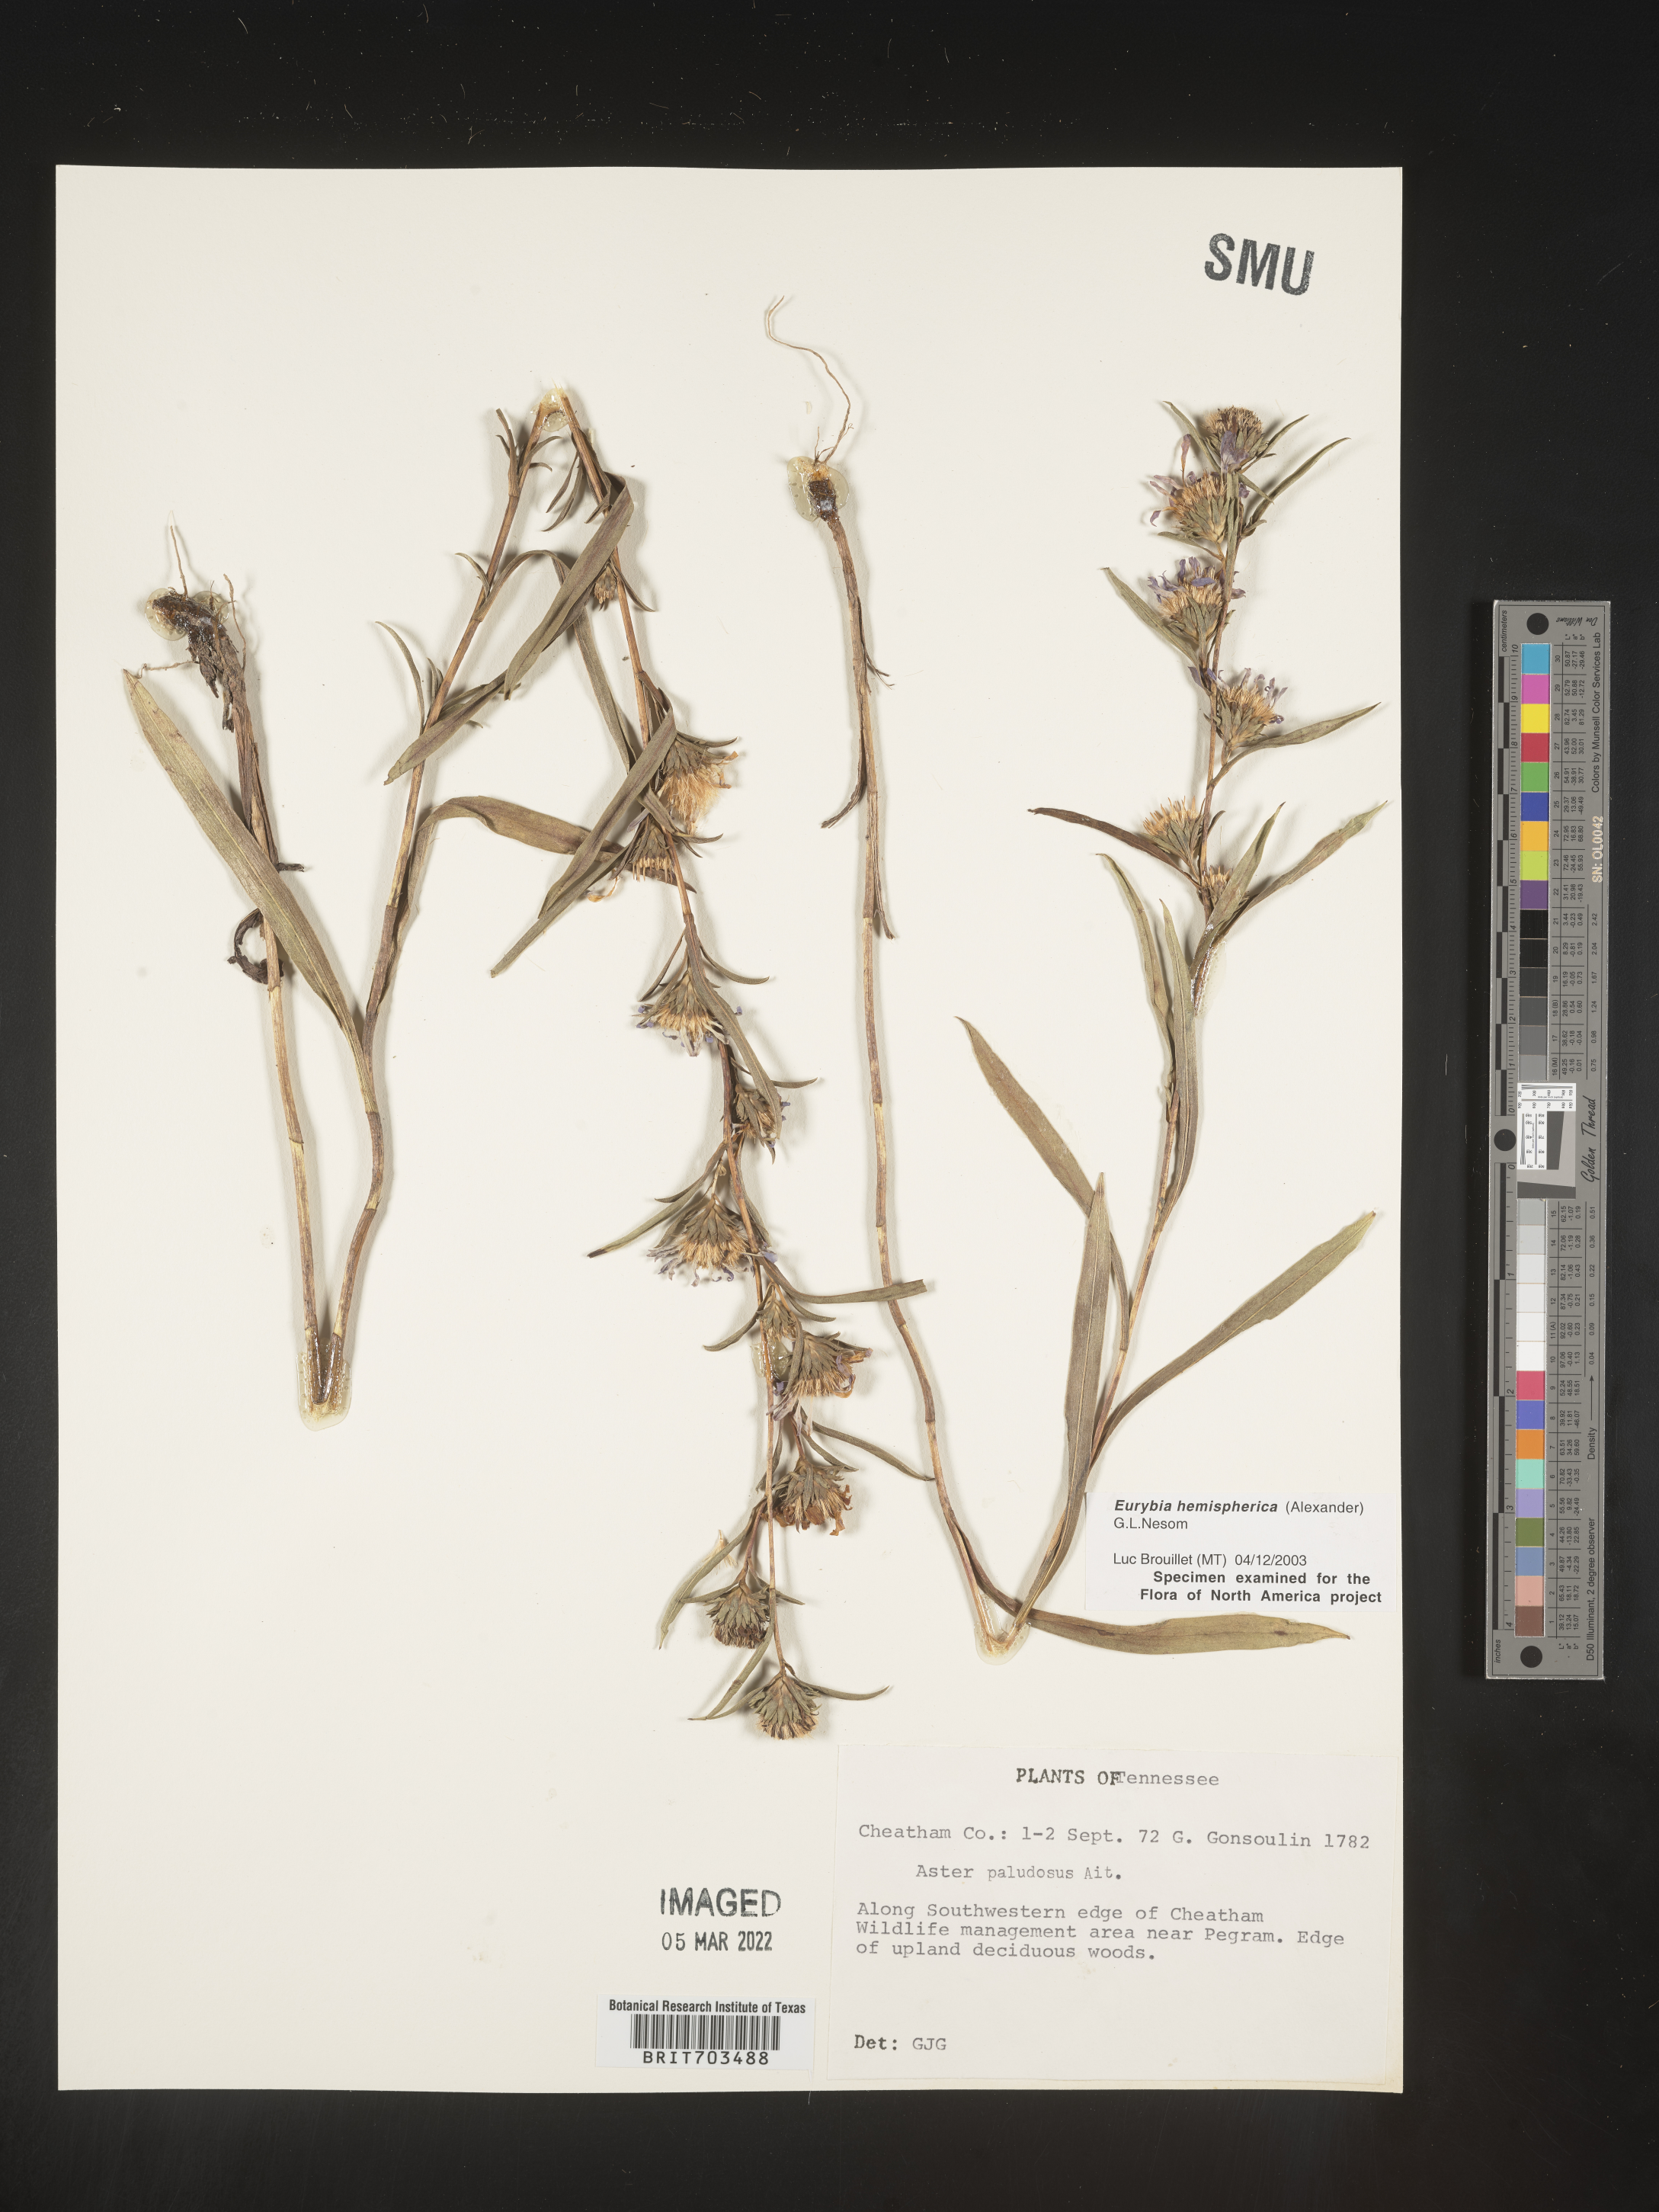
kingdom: Plantae
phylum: Tracheophyta
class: Magnoliopsida
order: Asterales
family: Asteraceae
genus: Eurybia
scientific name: Eurybia hemispherica
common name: Showy aster
